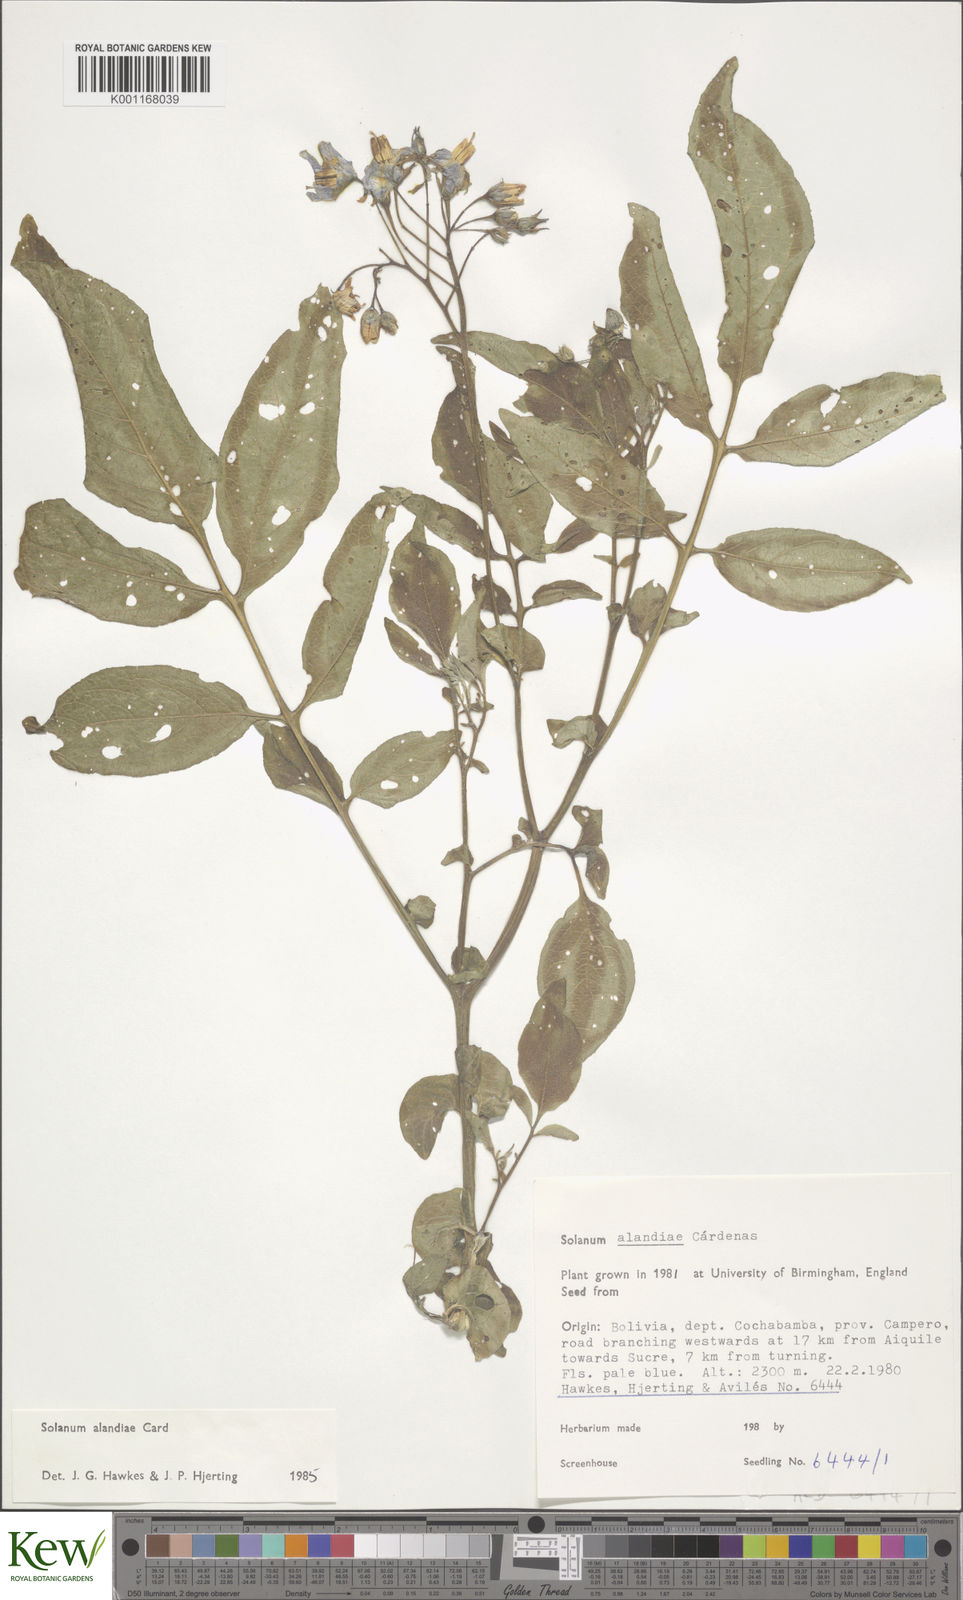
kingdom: Plantae
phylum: Tracheophyta
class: Magnoliopsida
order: Solanales
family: Solanaceae
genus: Solanum
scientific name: Solanum
